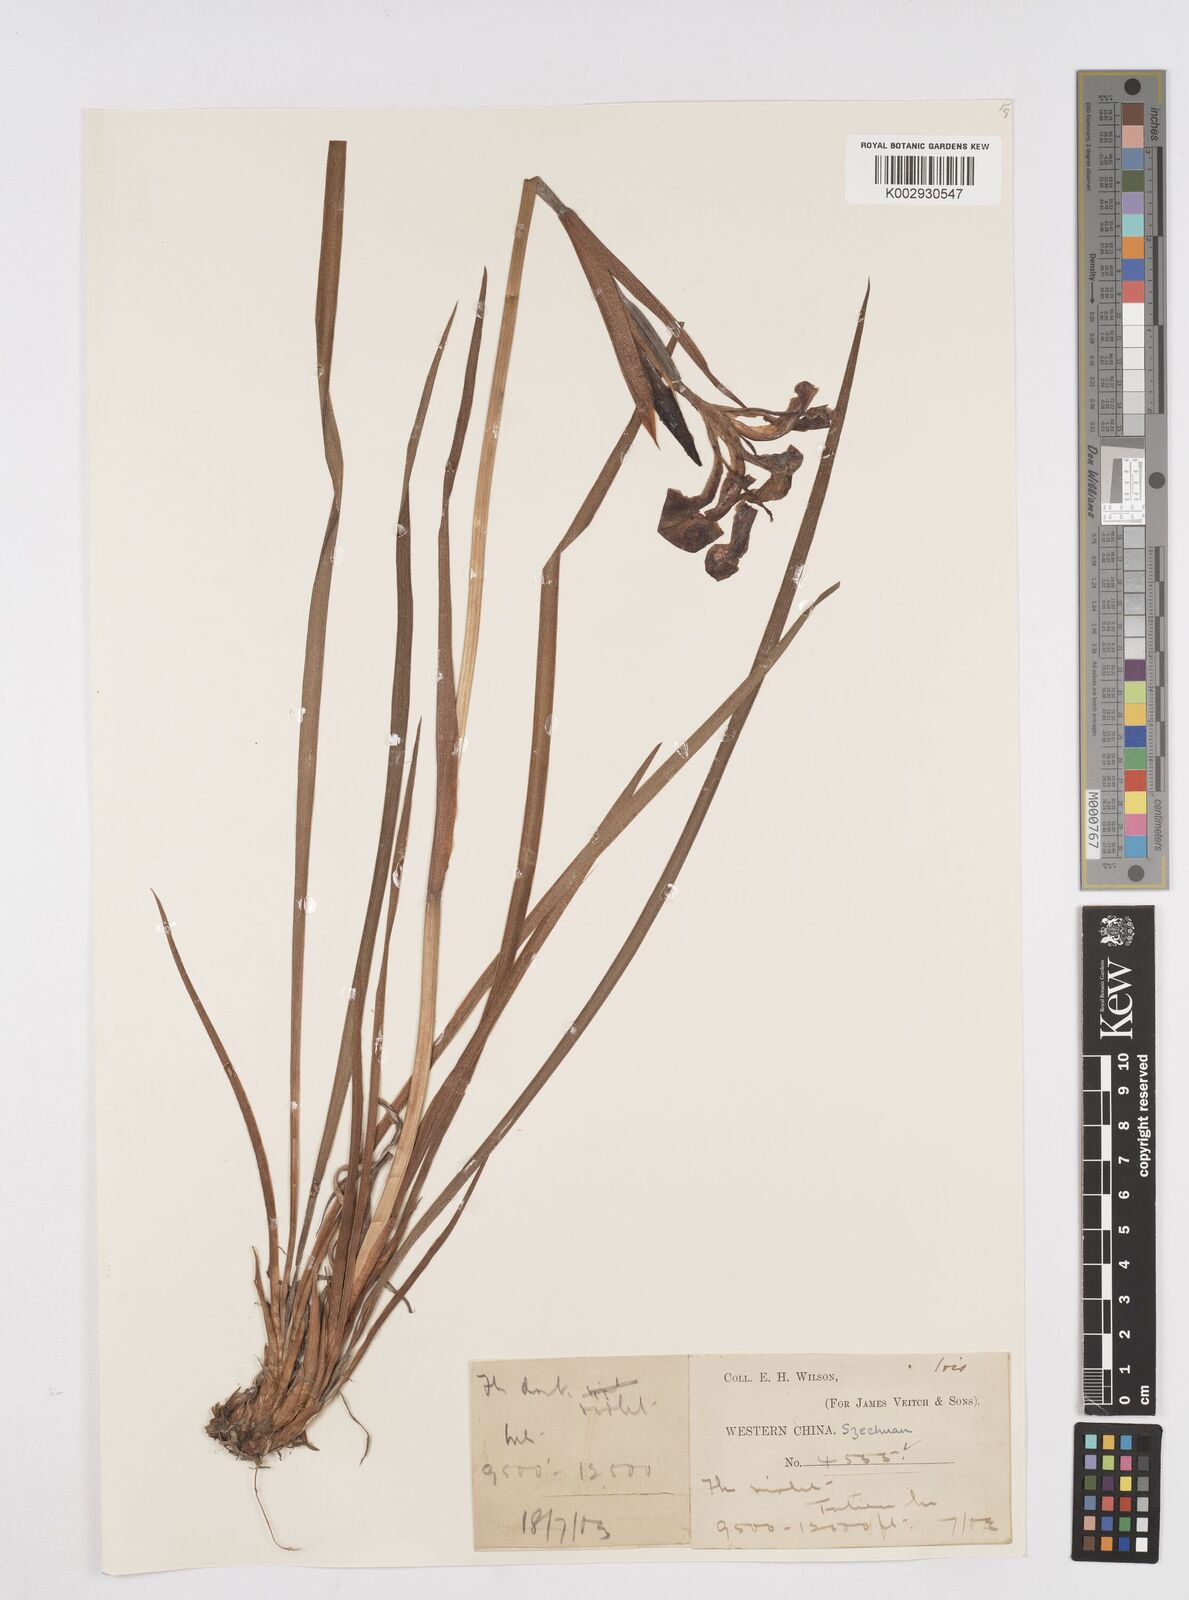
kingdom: Plantae
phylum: Tracheophyta
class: Liliopsida
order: Asparagales
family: Iridaceae
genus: Iris
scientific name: Iris bulleyana
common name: Southwest iris
